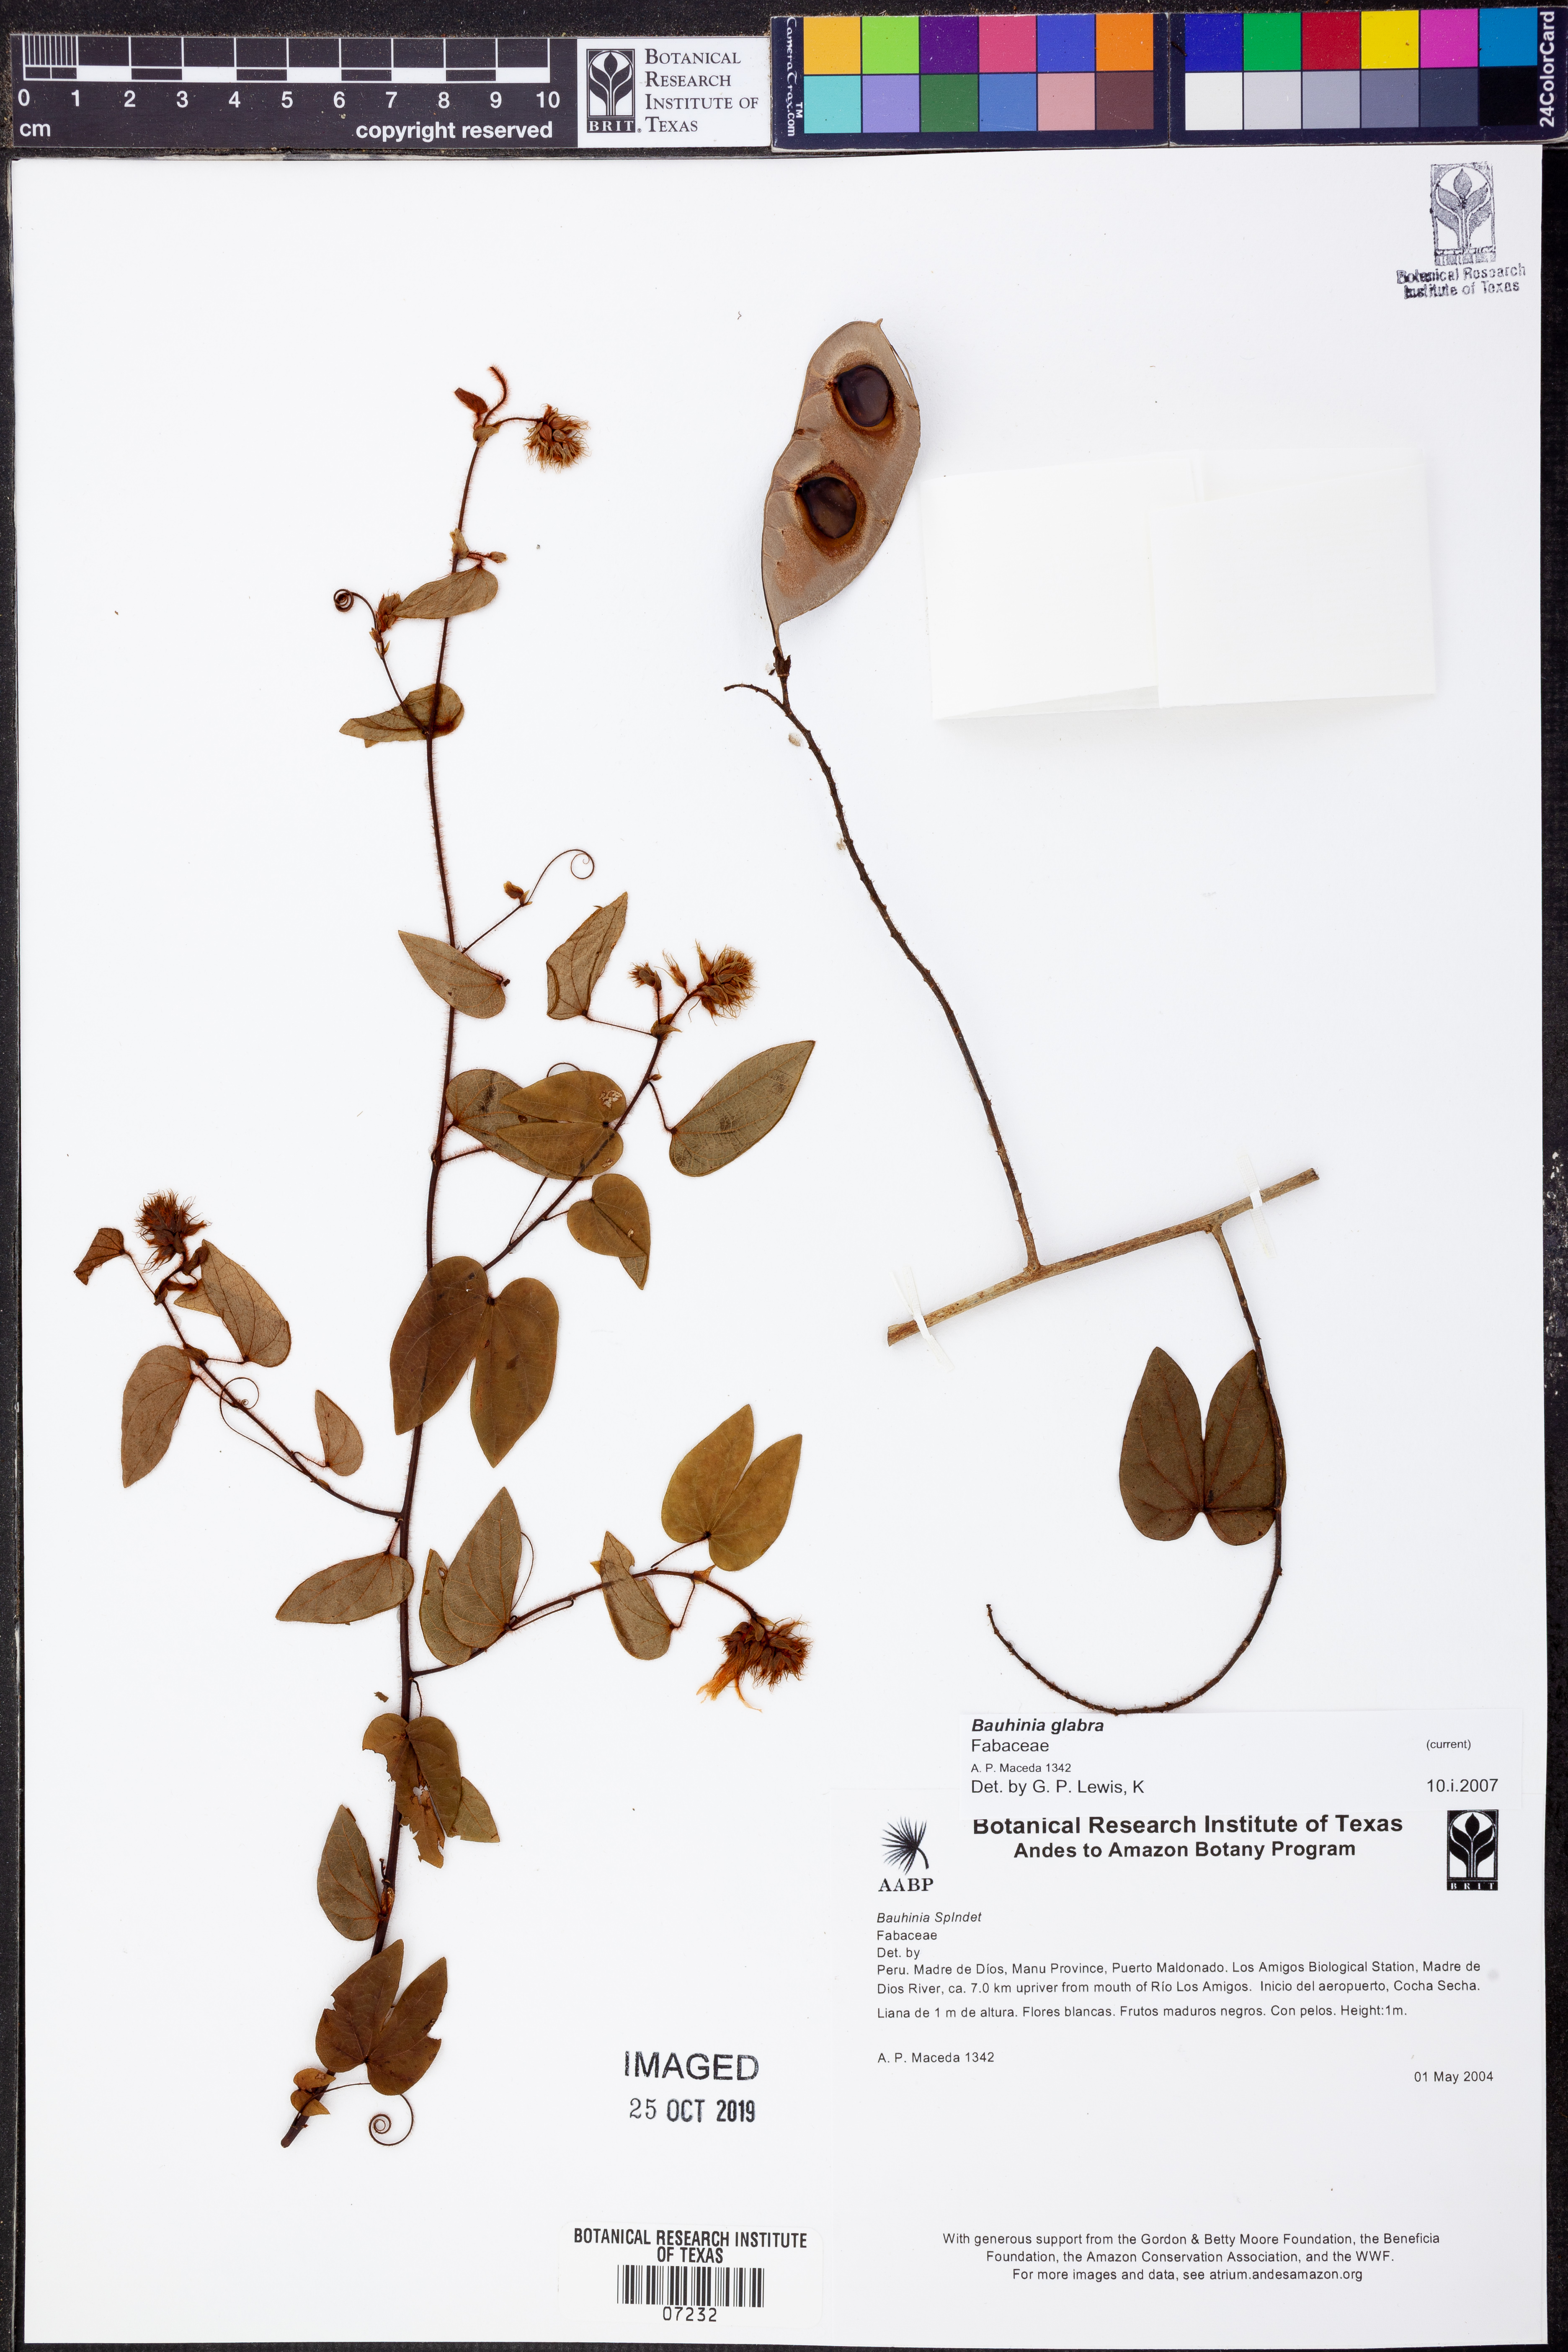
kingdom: Plantae
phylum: Tracheophyta
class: Magnoliopsida
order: Fabales
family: Fabaceae
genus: Bauhinia
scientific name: Bauhinia
